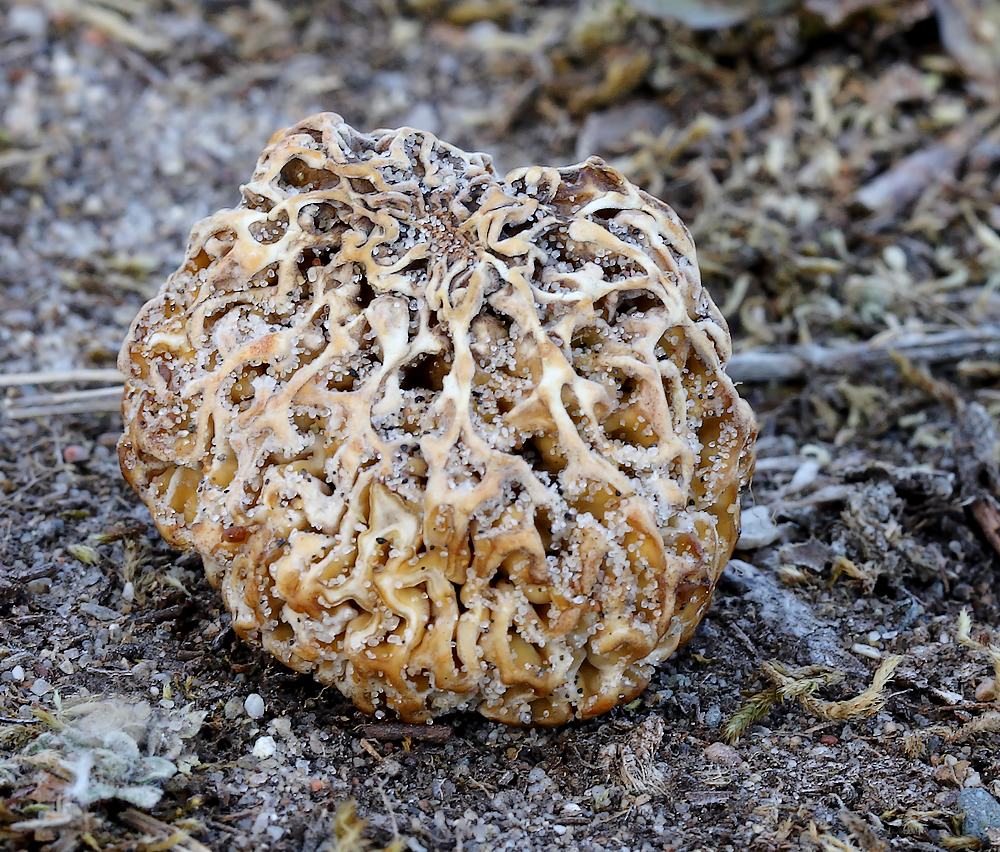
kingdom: Fungi
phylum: Ascomycota
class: Pezizomycetes
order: Pezizales
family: Morchellaceae
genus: Morchella
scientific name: Morchella esculenta
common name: Morel
